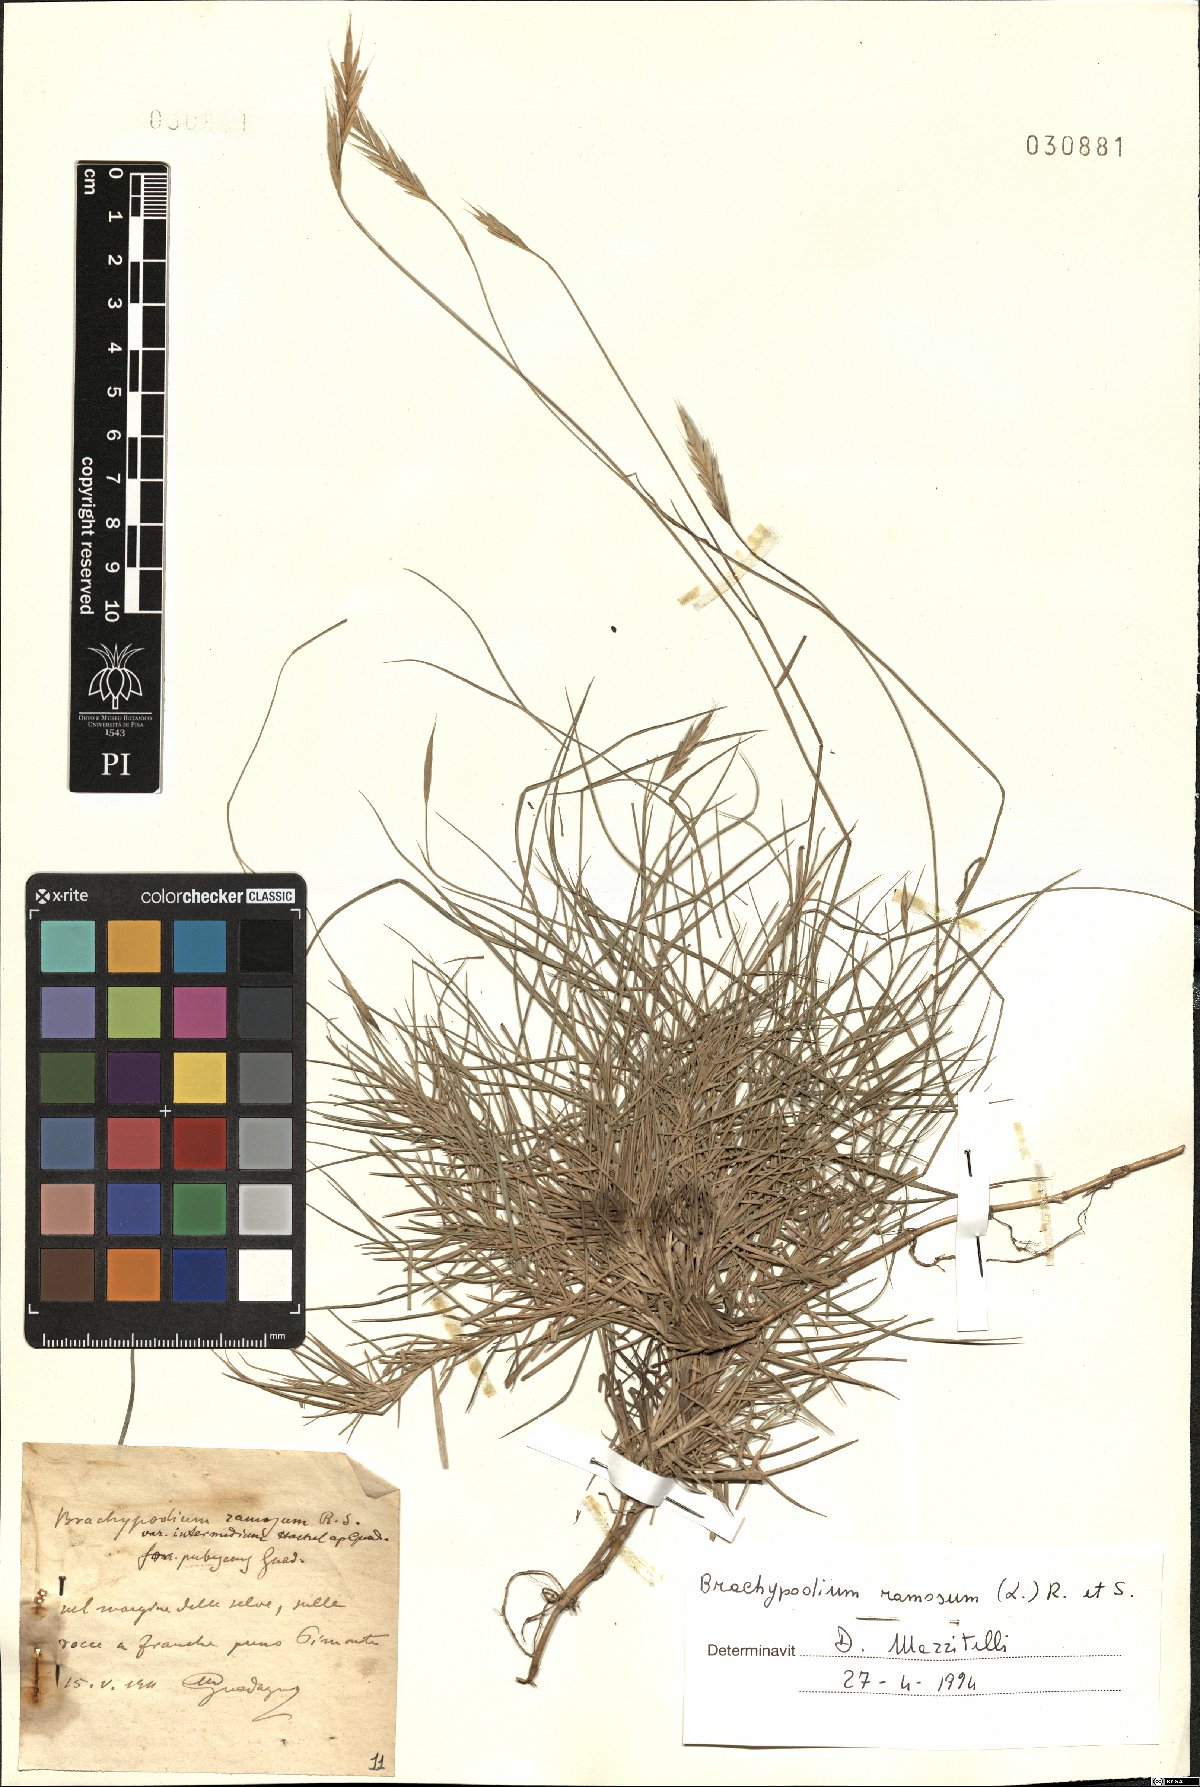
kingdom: Plantae
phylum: Tracheophyta
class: Liliopsida
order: Poales
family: Poaceae
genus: Brachypodium
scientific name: Brachypodium retusum
